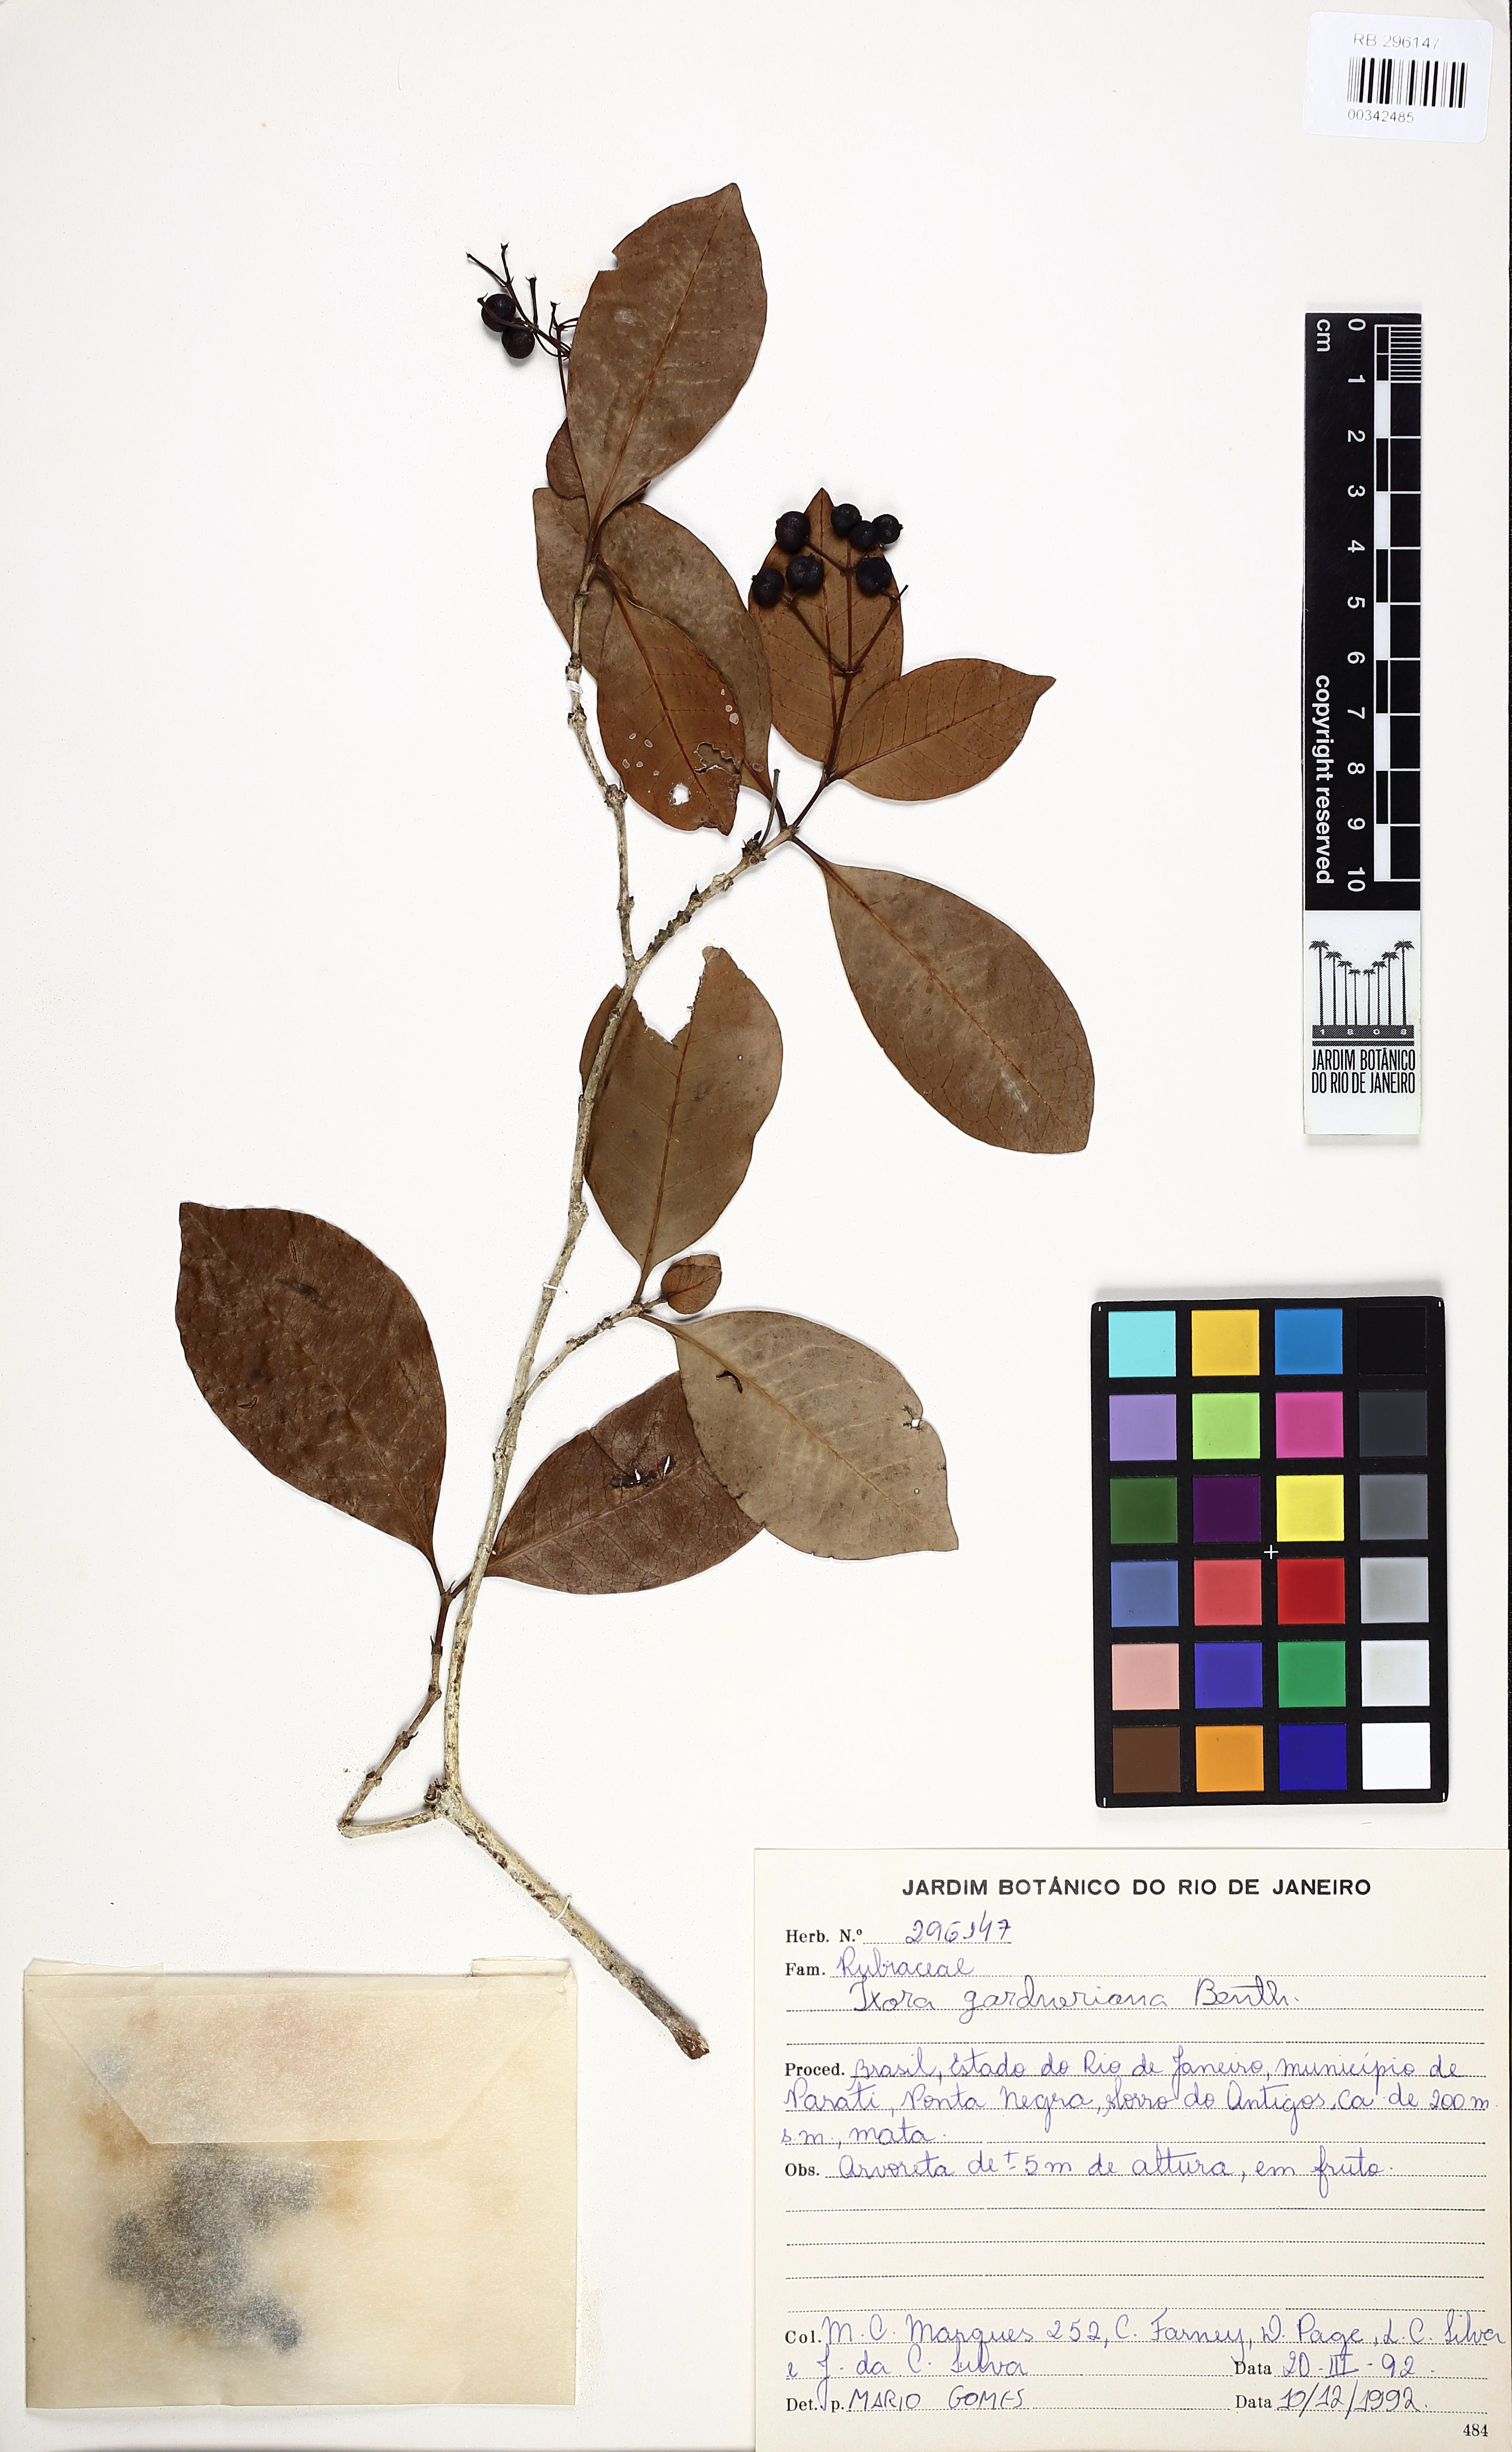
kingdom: Plantae
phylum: Tracheophyta
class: Magnoliopsida
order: Gentianales
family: Rubiaceae
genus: Ixora
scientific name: Ixora gardneriana
